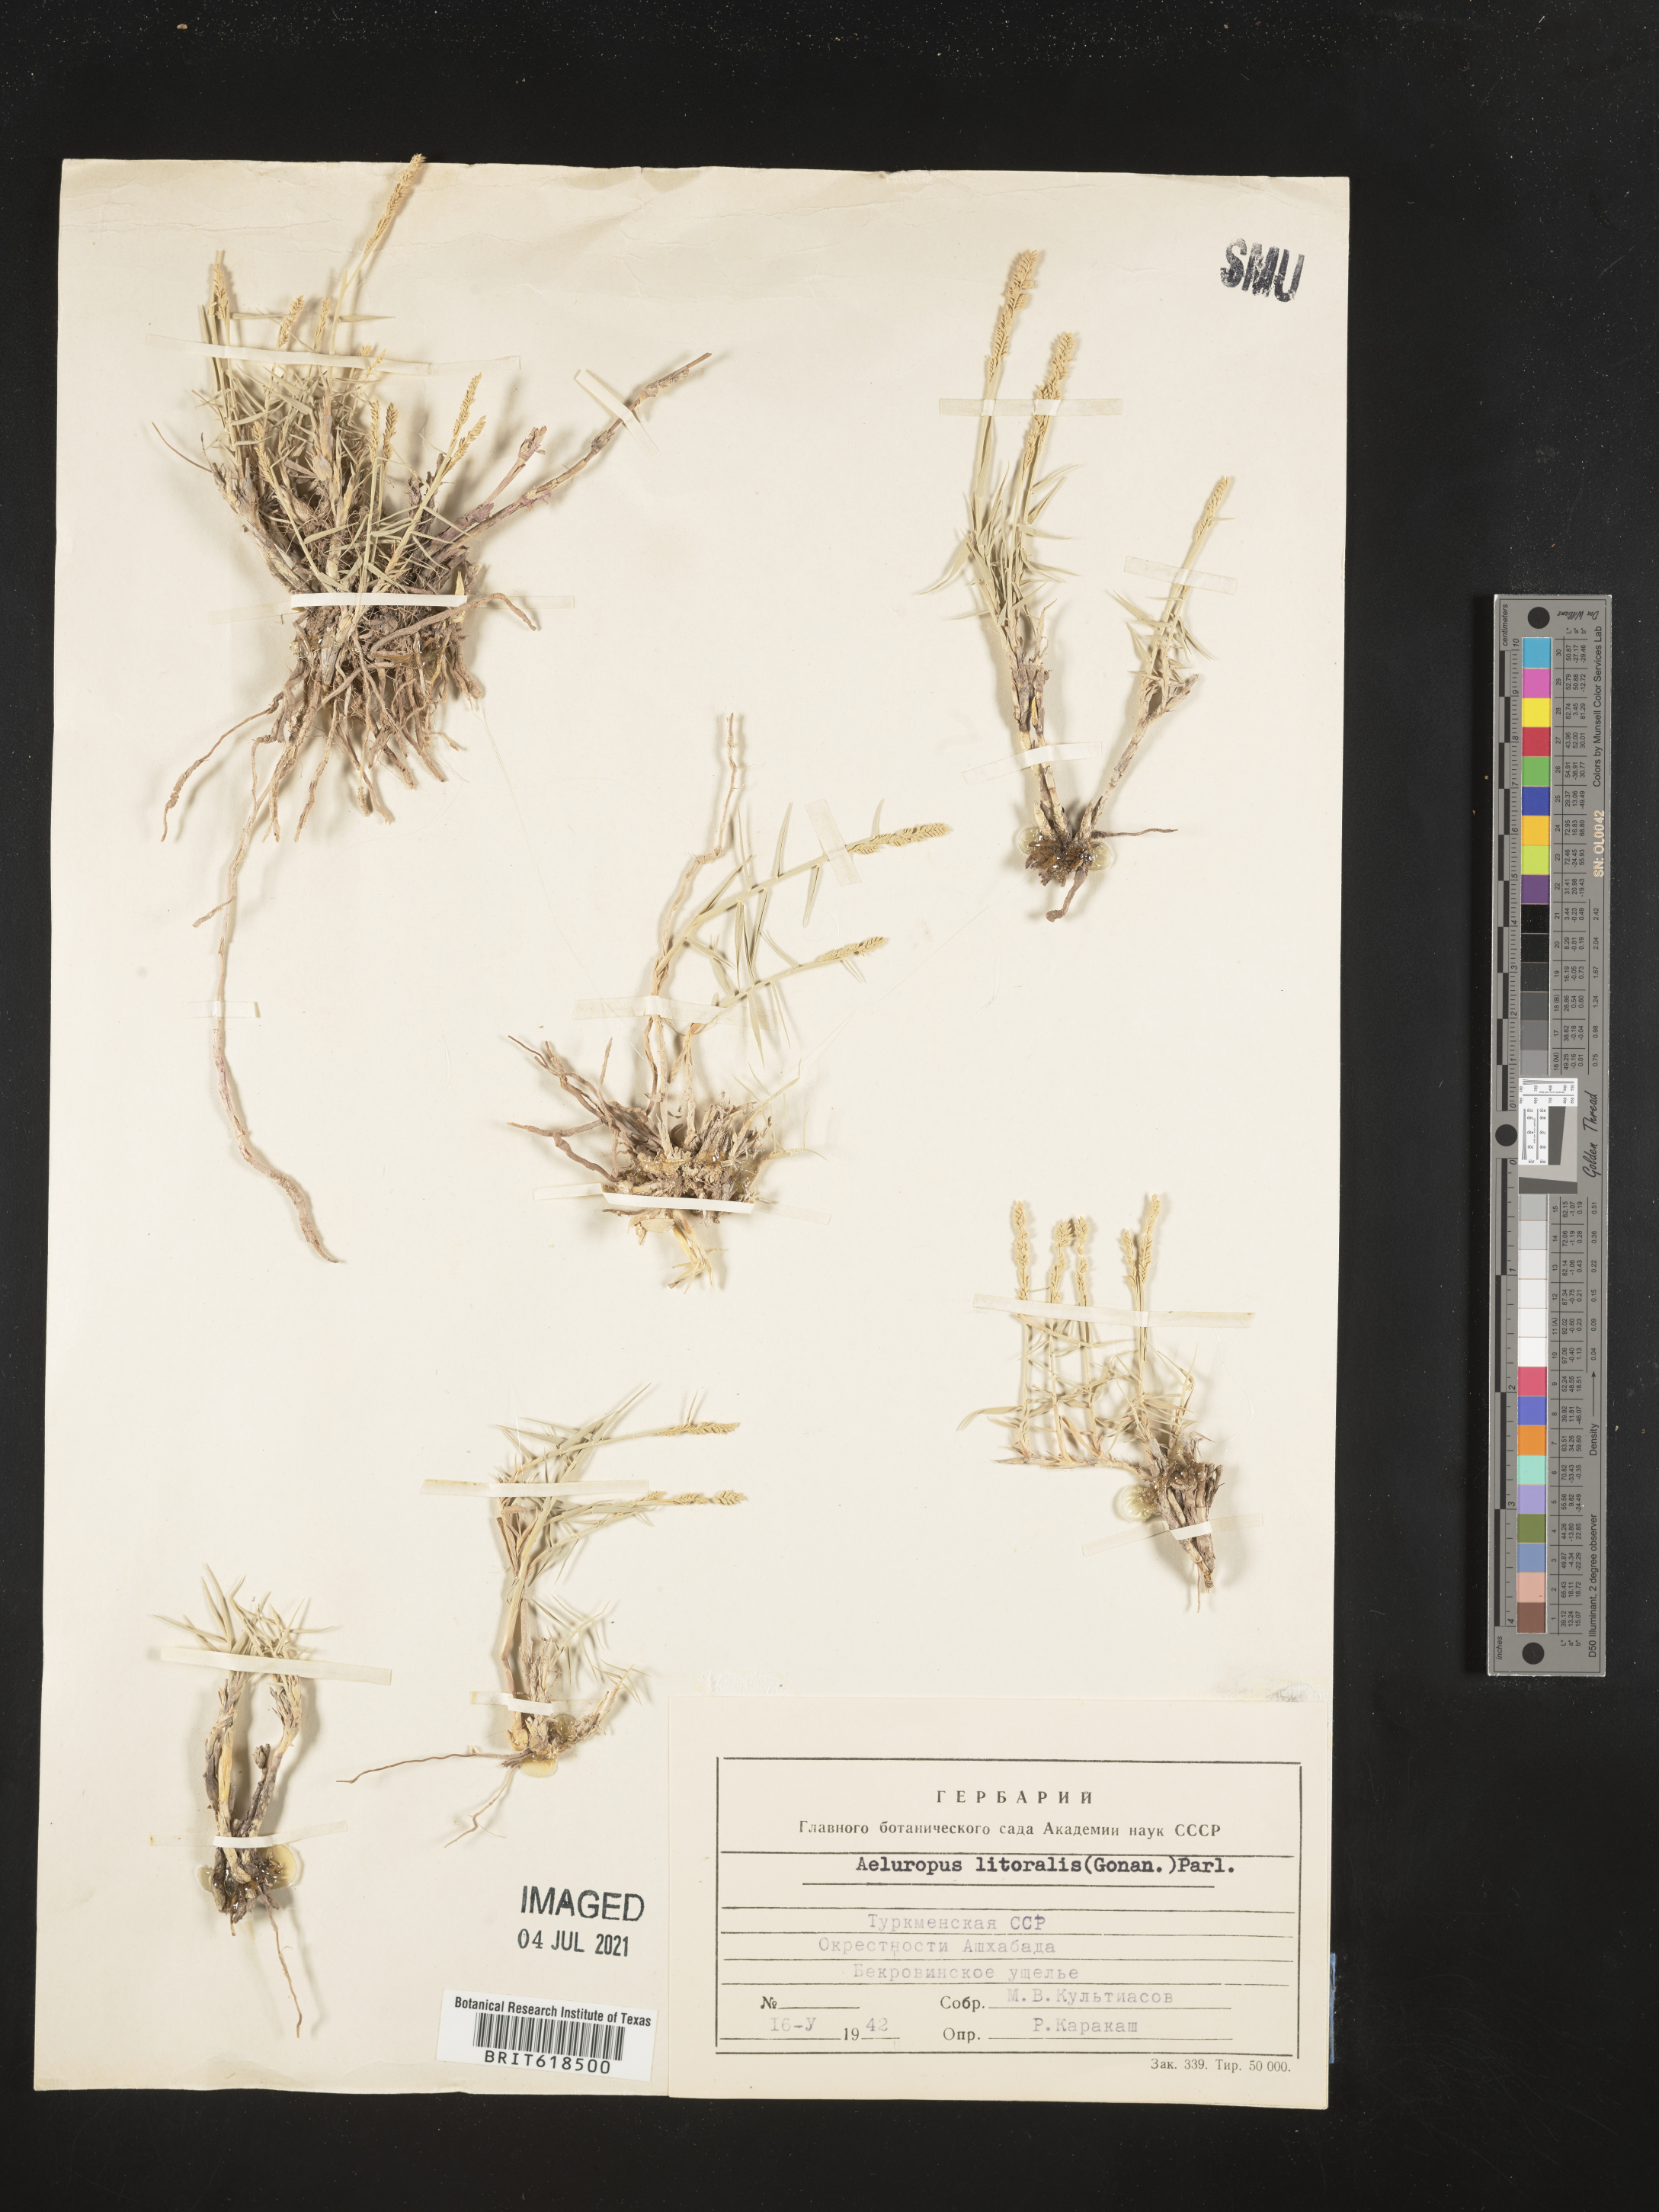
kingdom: Plantae
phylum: Tracheophyta
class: Liliopsida
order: Poales
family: Poaceae
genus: Aeluropus
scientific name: Aeluropus littoralis
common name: Indian walnut
